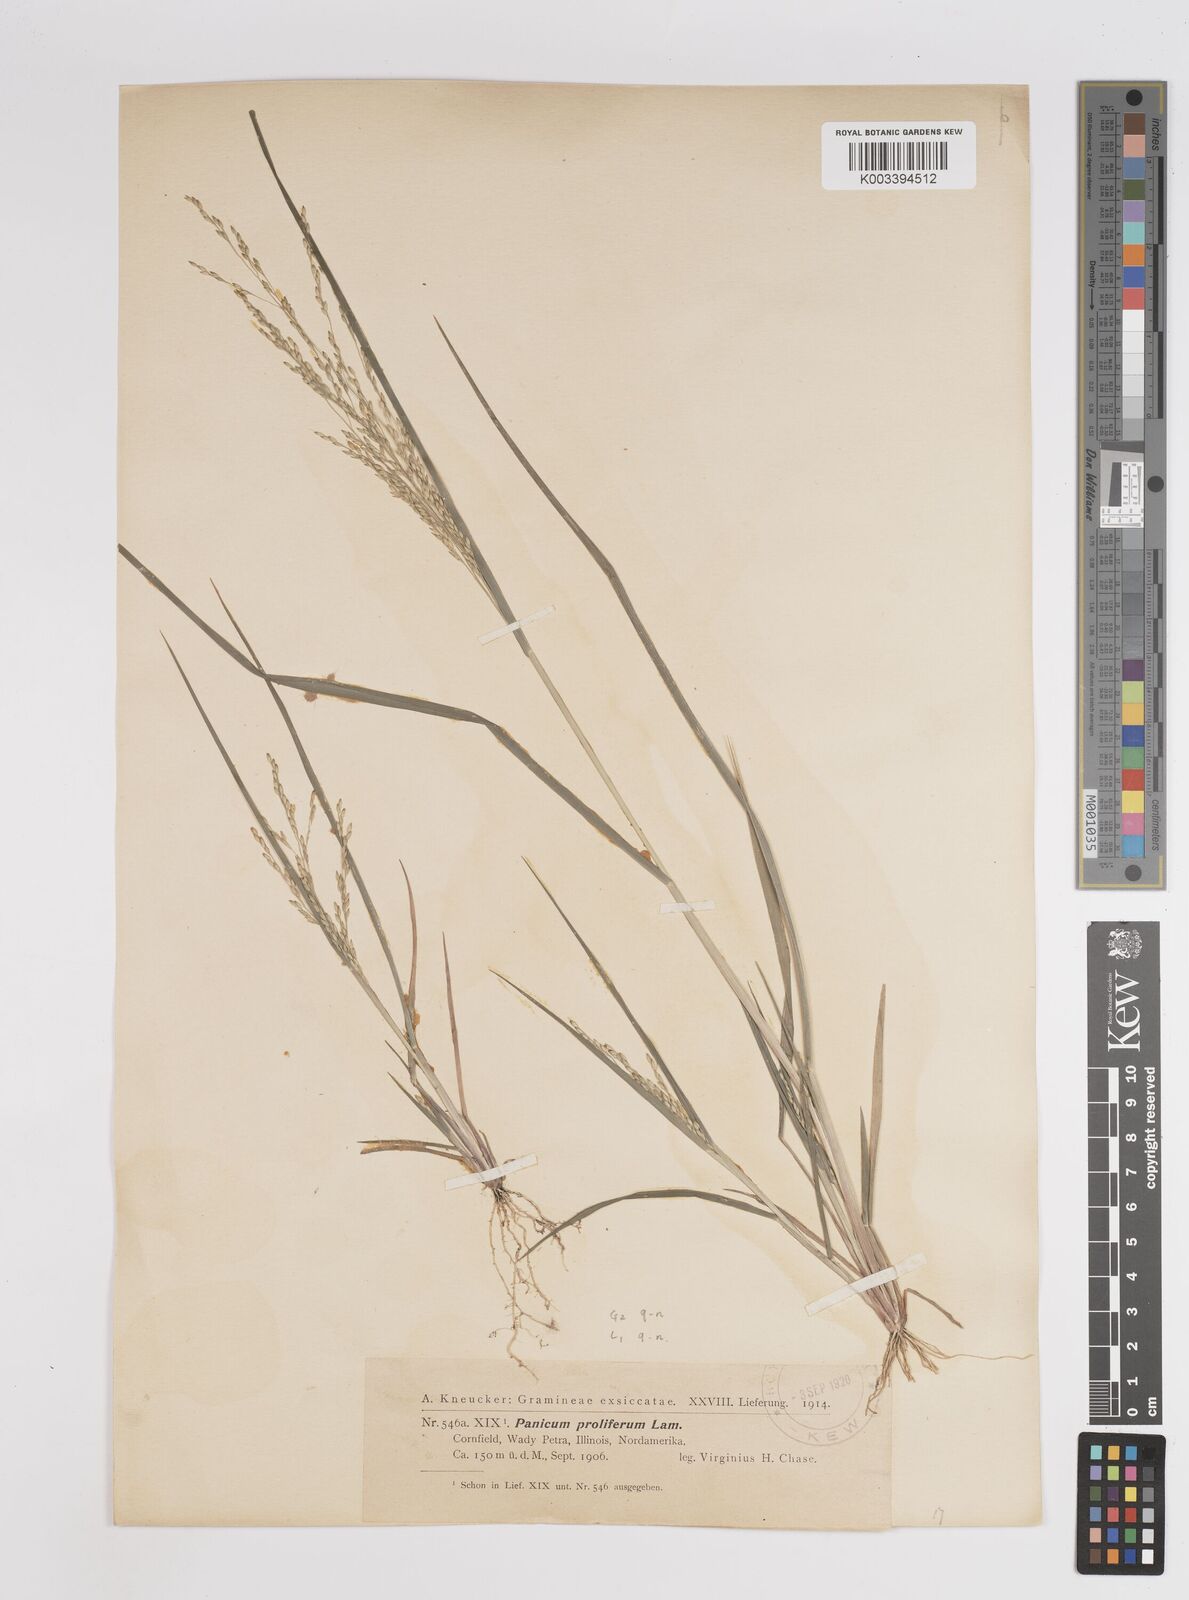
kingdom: Plantae
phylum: Tracheophyta
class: Liliopsida
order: Poales
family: Poaceae
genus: Panicum
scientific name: Panicum dichotomiflorum
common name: Autumn millet
